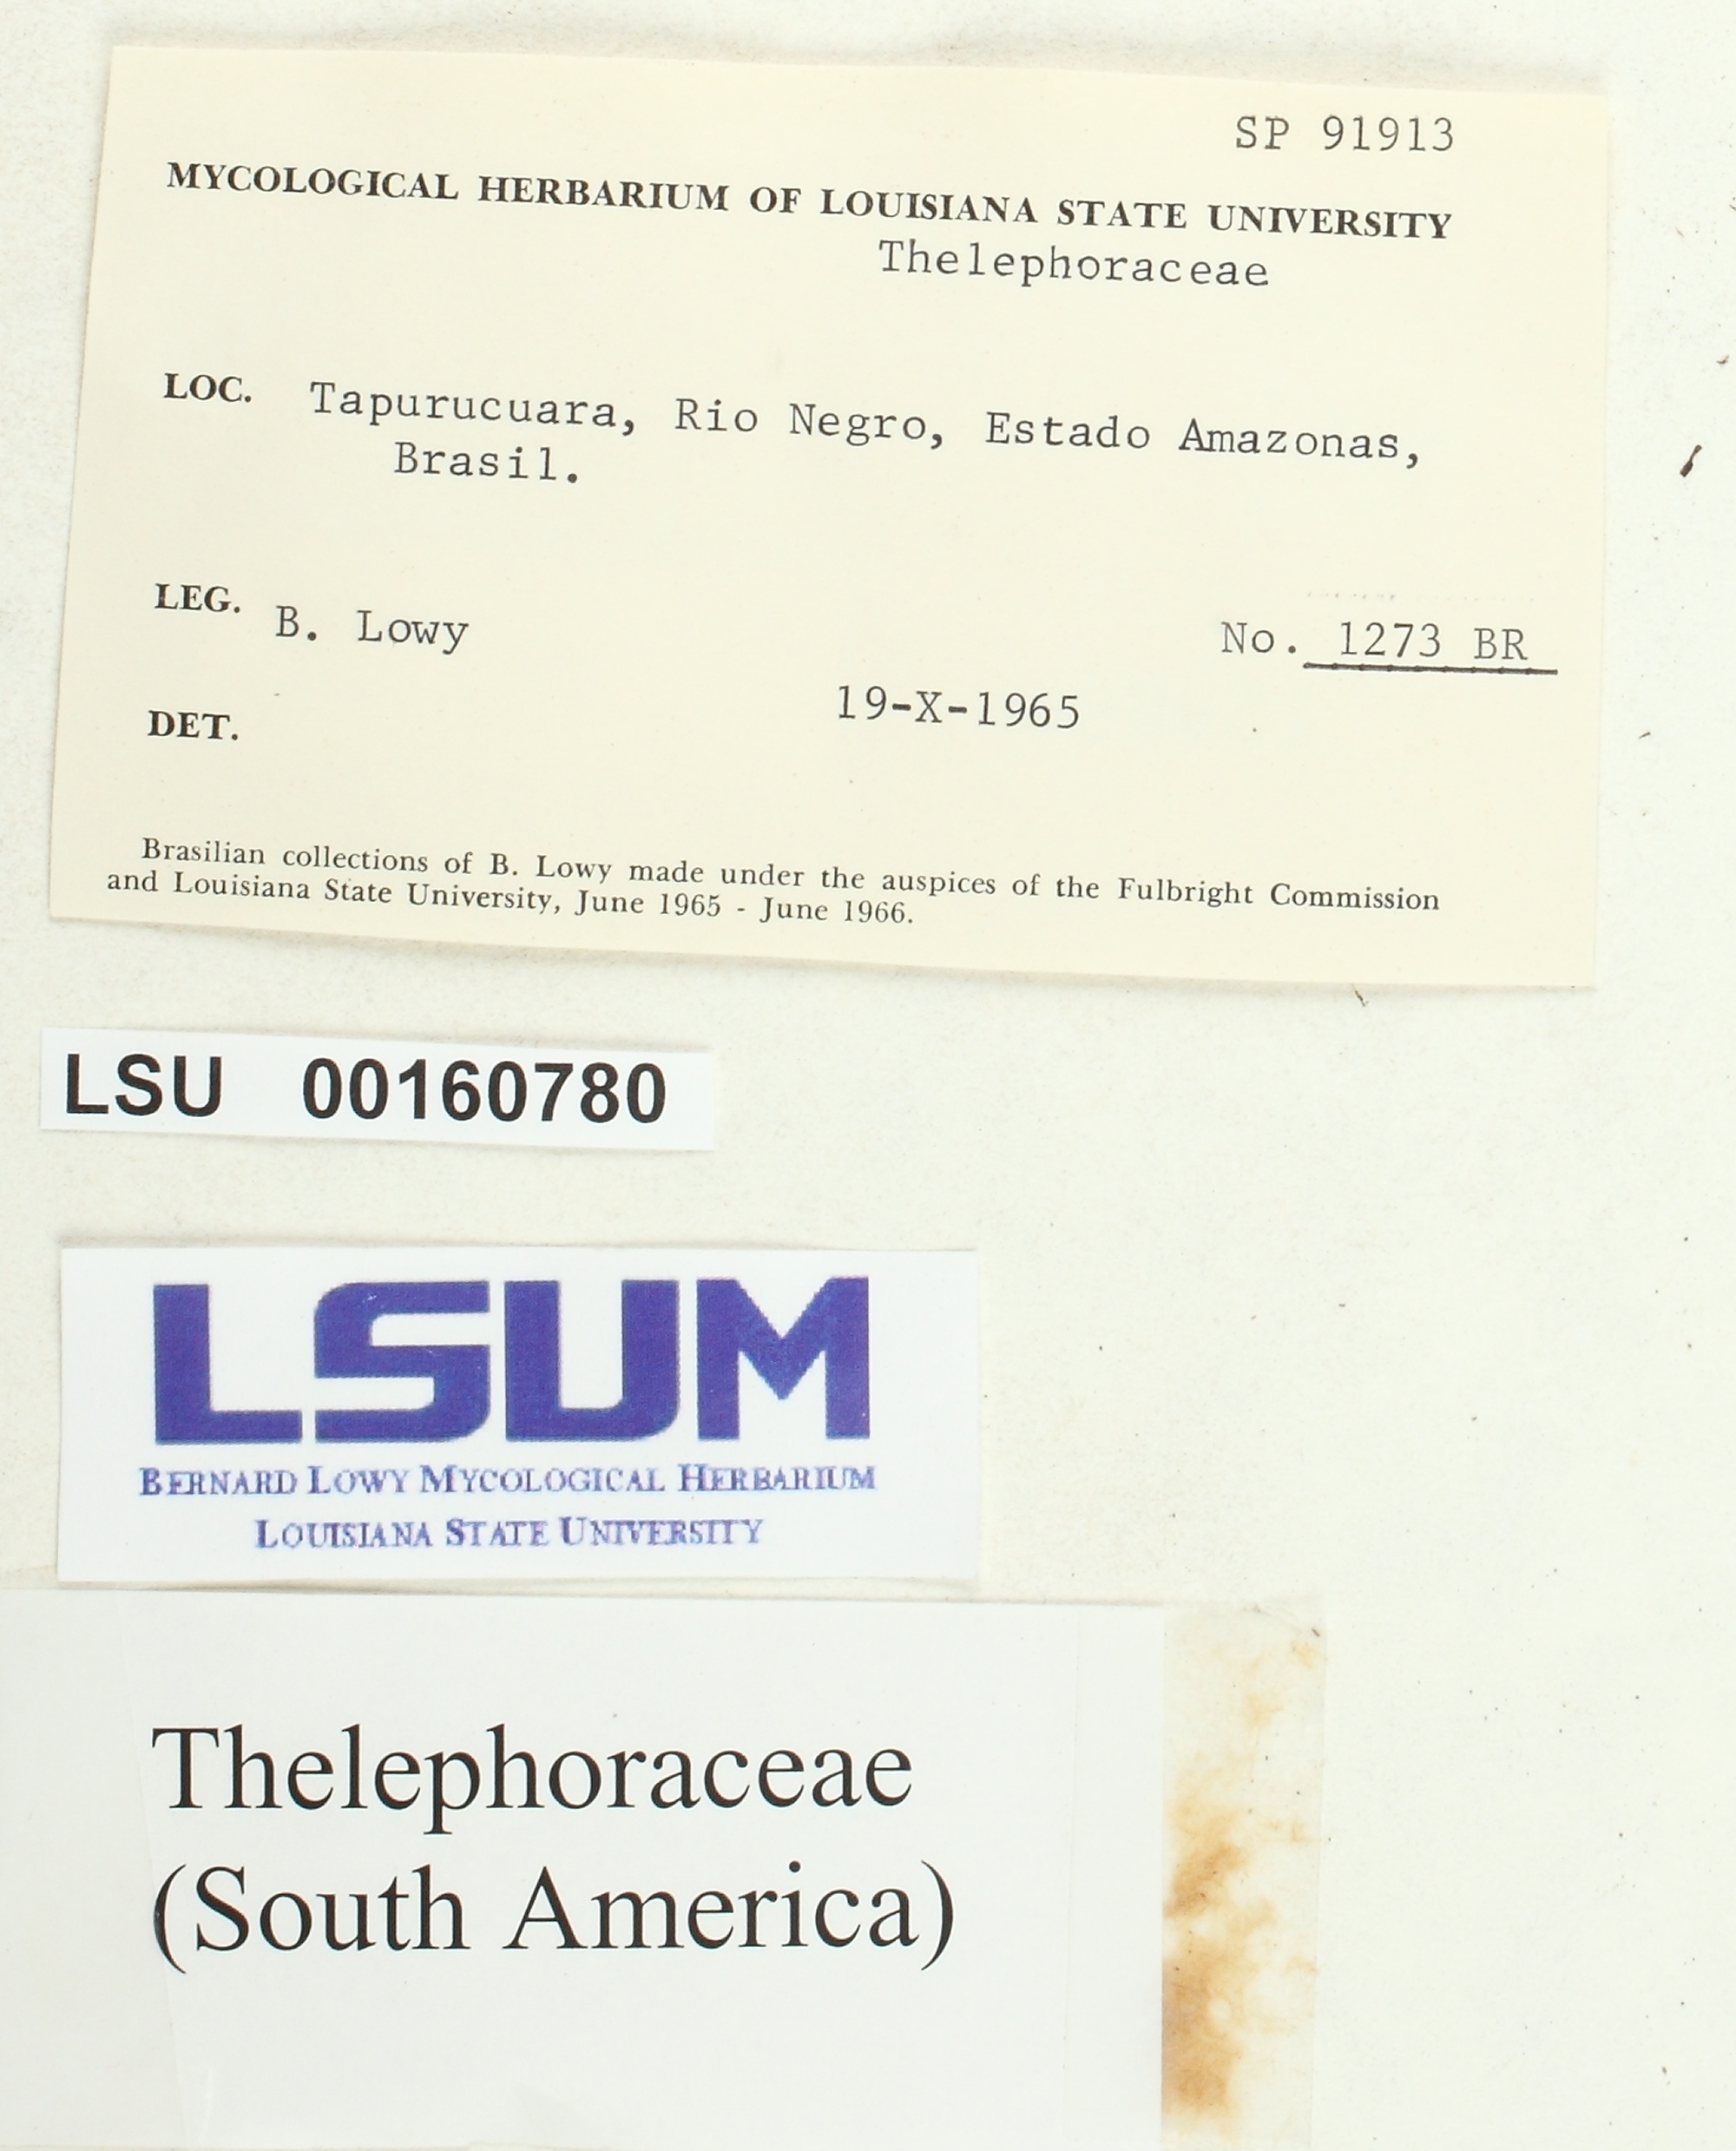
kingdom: Fungi
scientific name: Fungi
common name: Fungi
